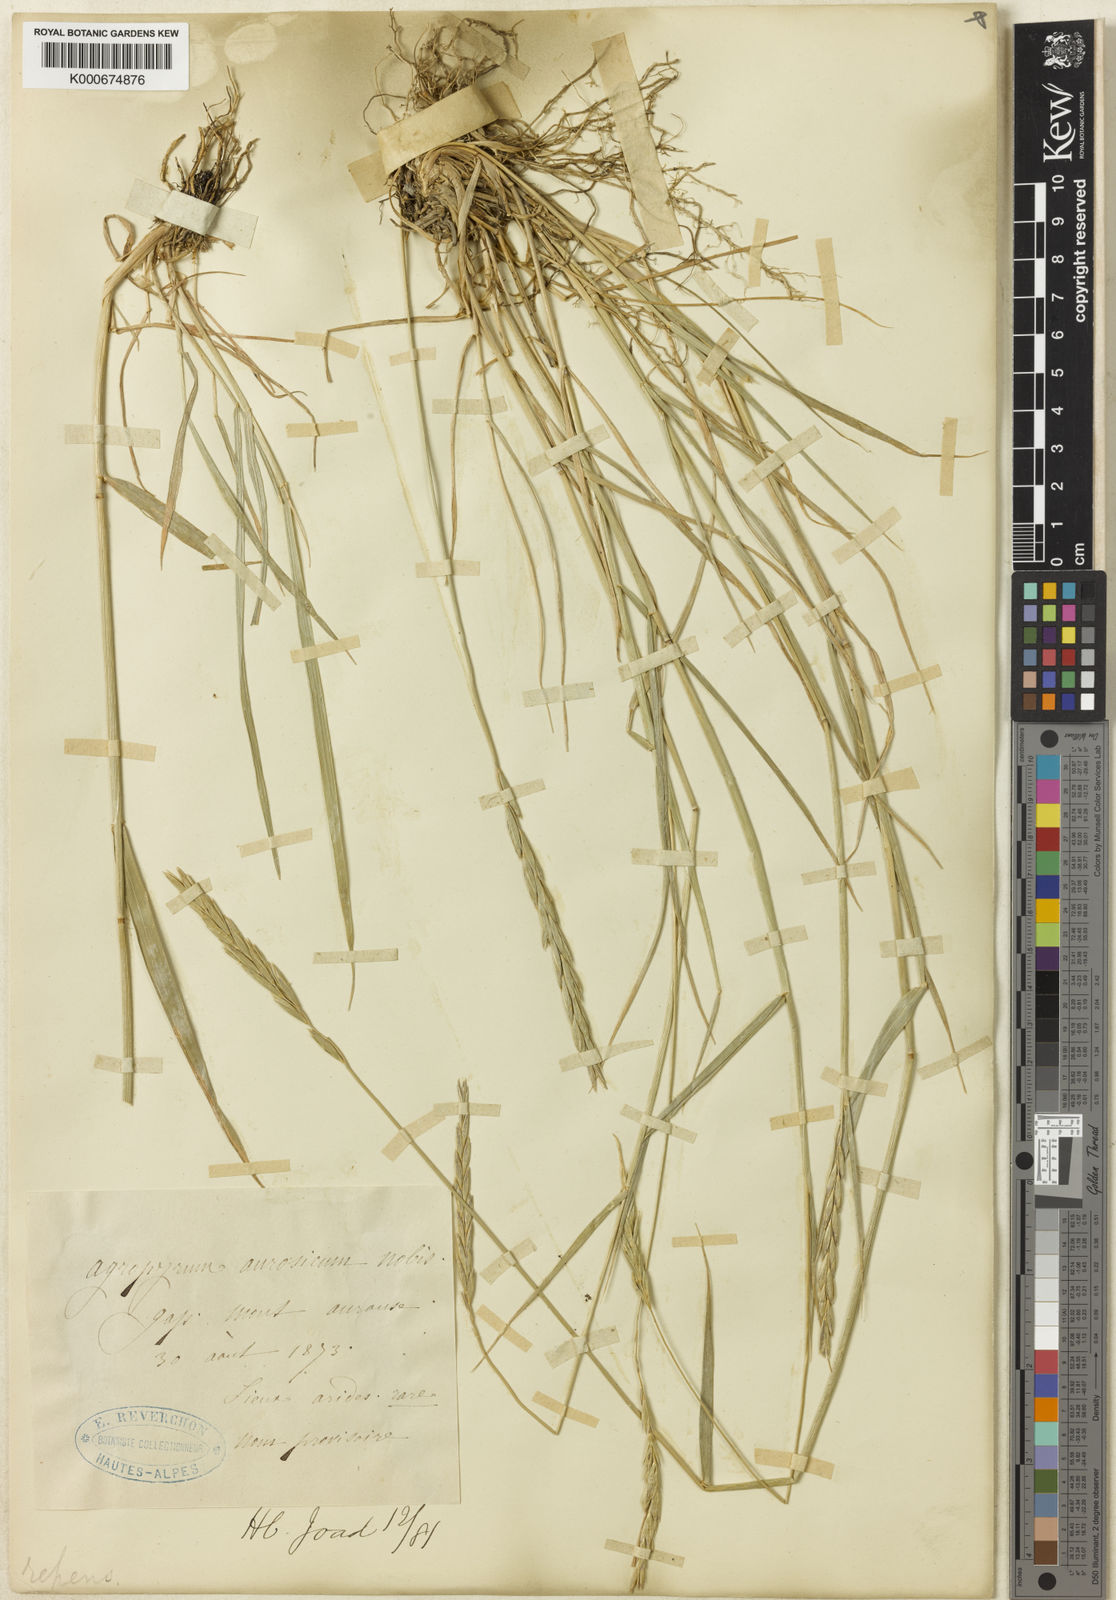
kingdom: Plantae
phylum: Tracheophyta
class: Liliopsida
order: Poales
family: Poaceae
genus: Elymus
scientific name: Elymus repens
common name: Quackgrass
